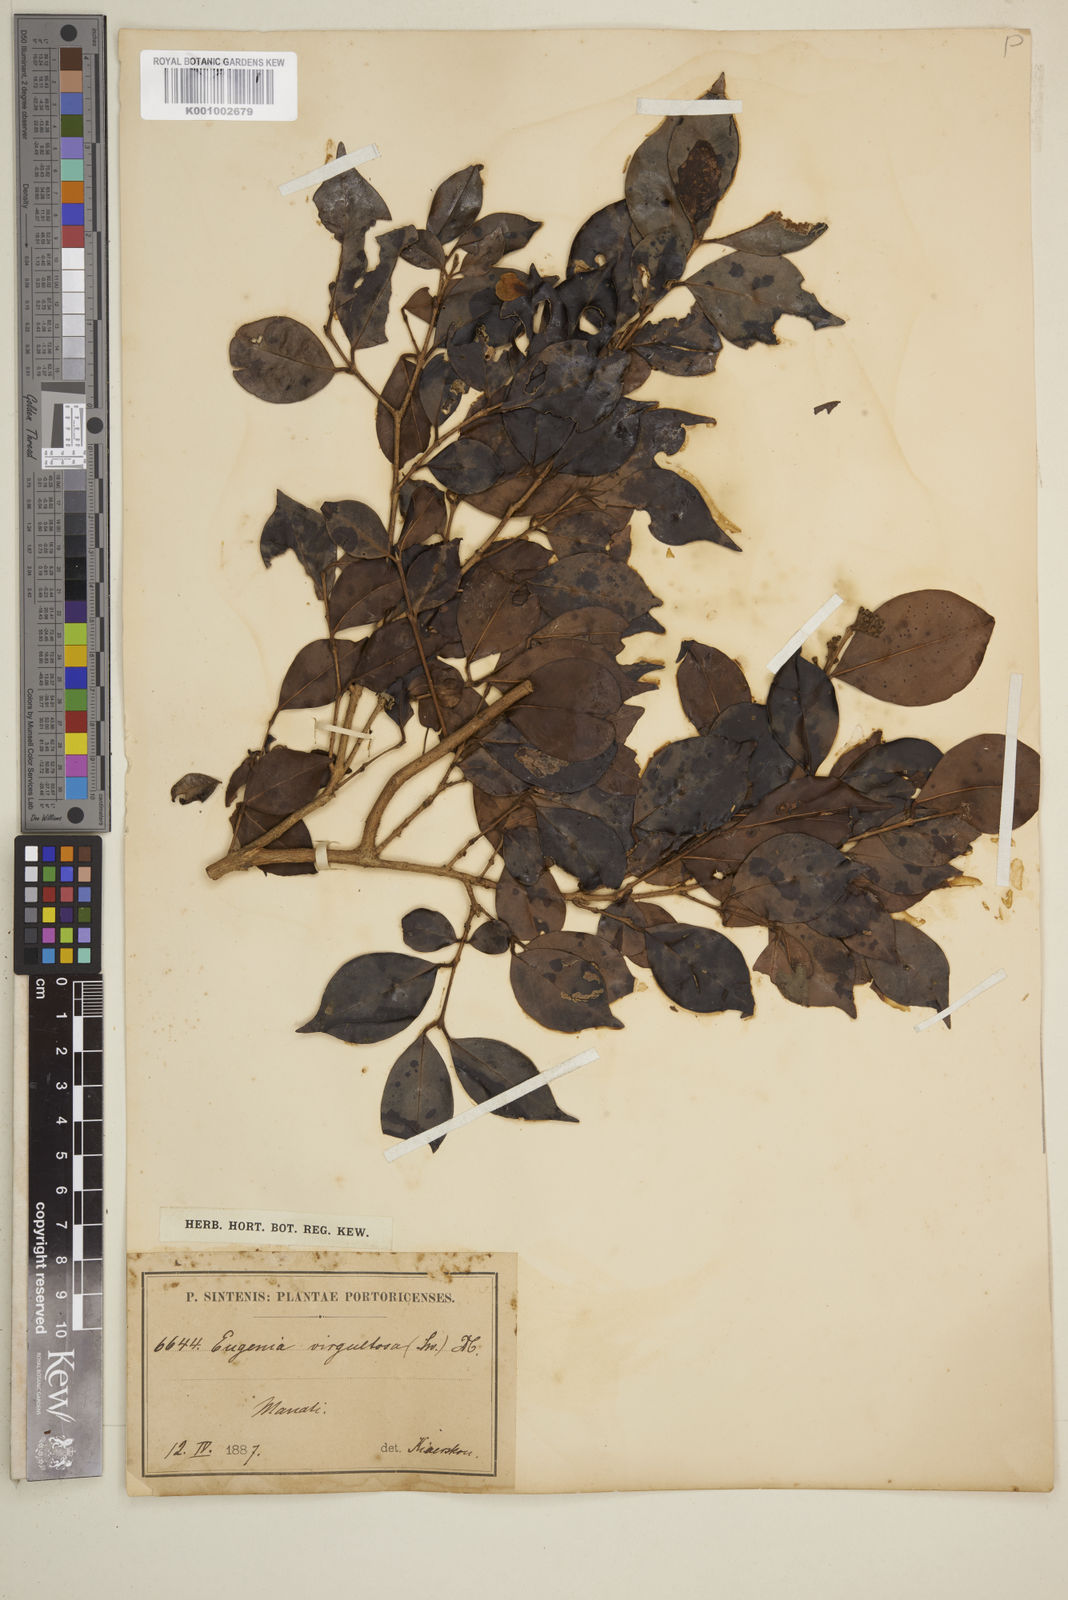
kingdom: Plantae
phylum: Tracheophyta
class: Magnoliopsida
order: Myrtales
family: Myrtaceae
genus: Eugenia
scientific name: Eugenia biflora
